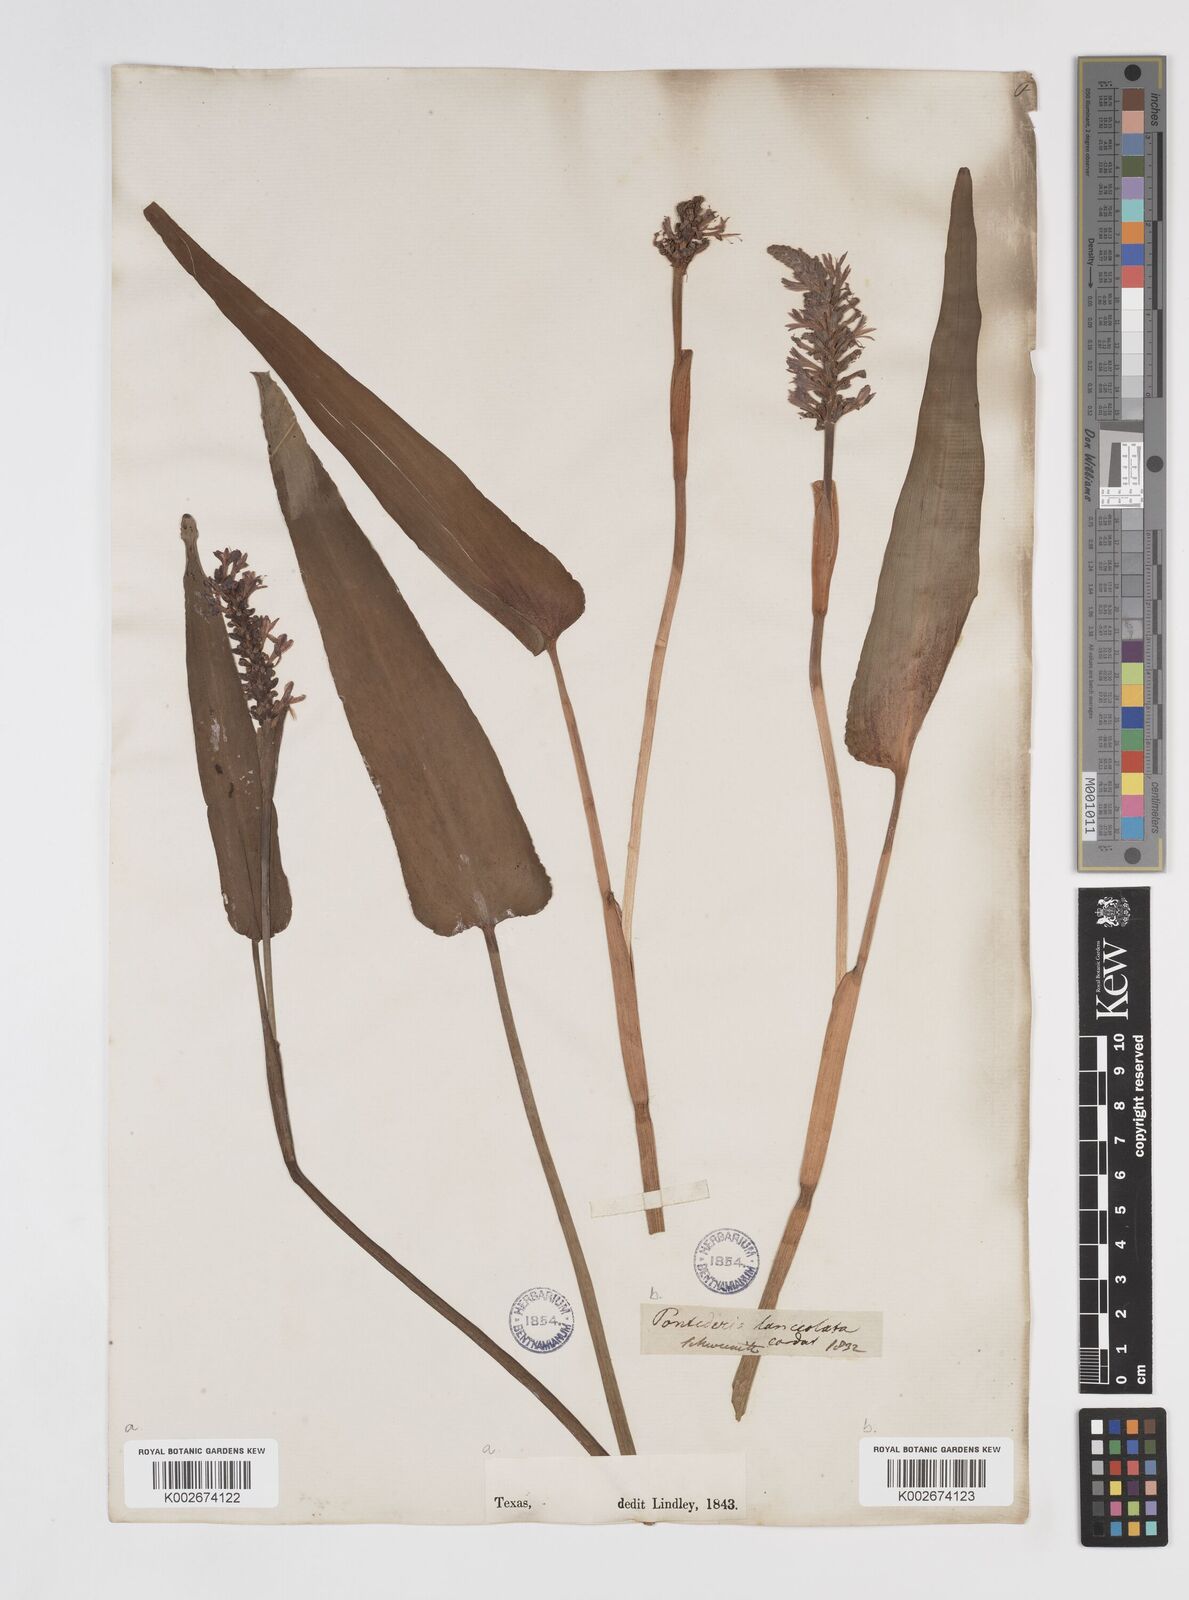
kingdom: Plantae
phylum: Tracheophyta
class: Liliopsida
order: Commelinales
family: Pontederiaceae
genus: Pontederia
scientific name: Pontederia cordata
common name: Pickerelweed
